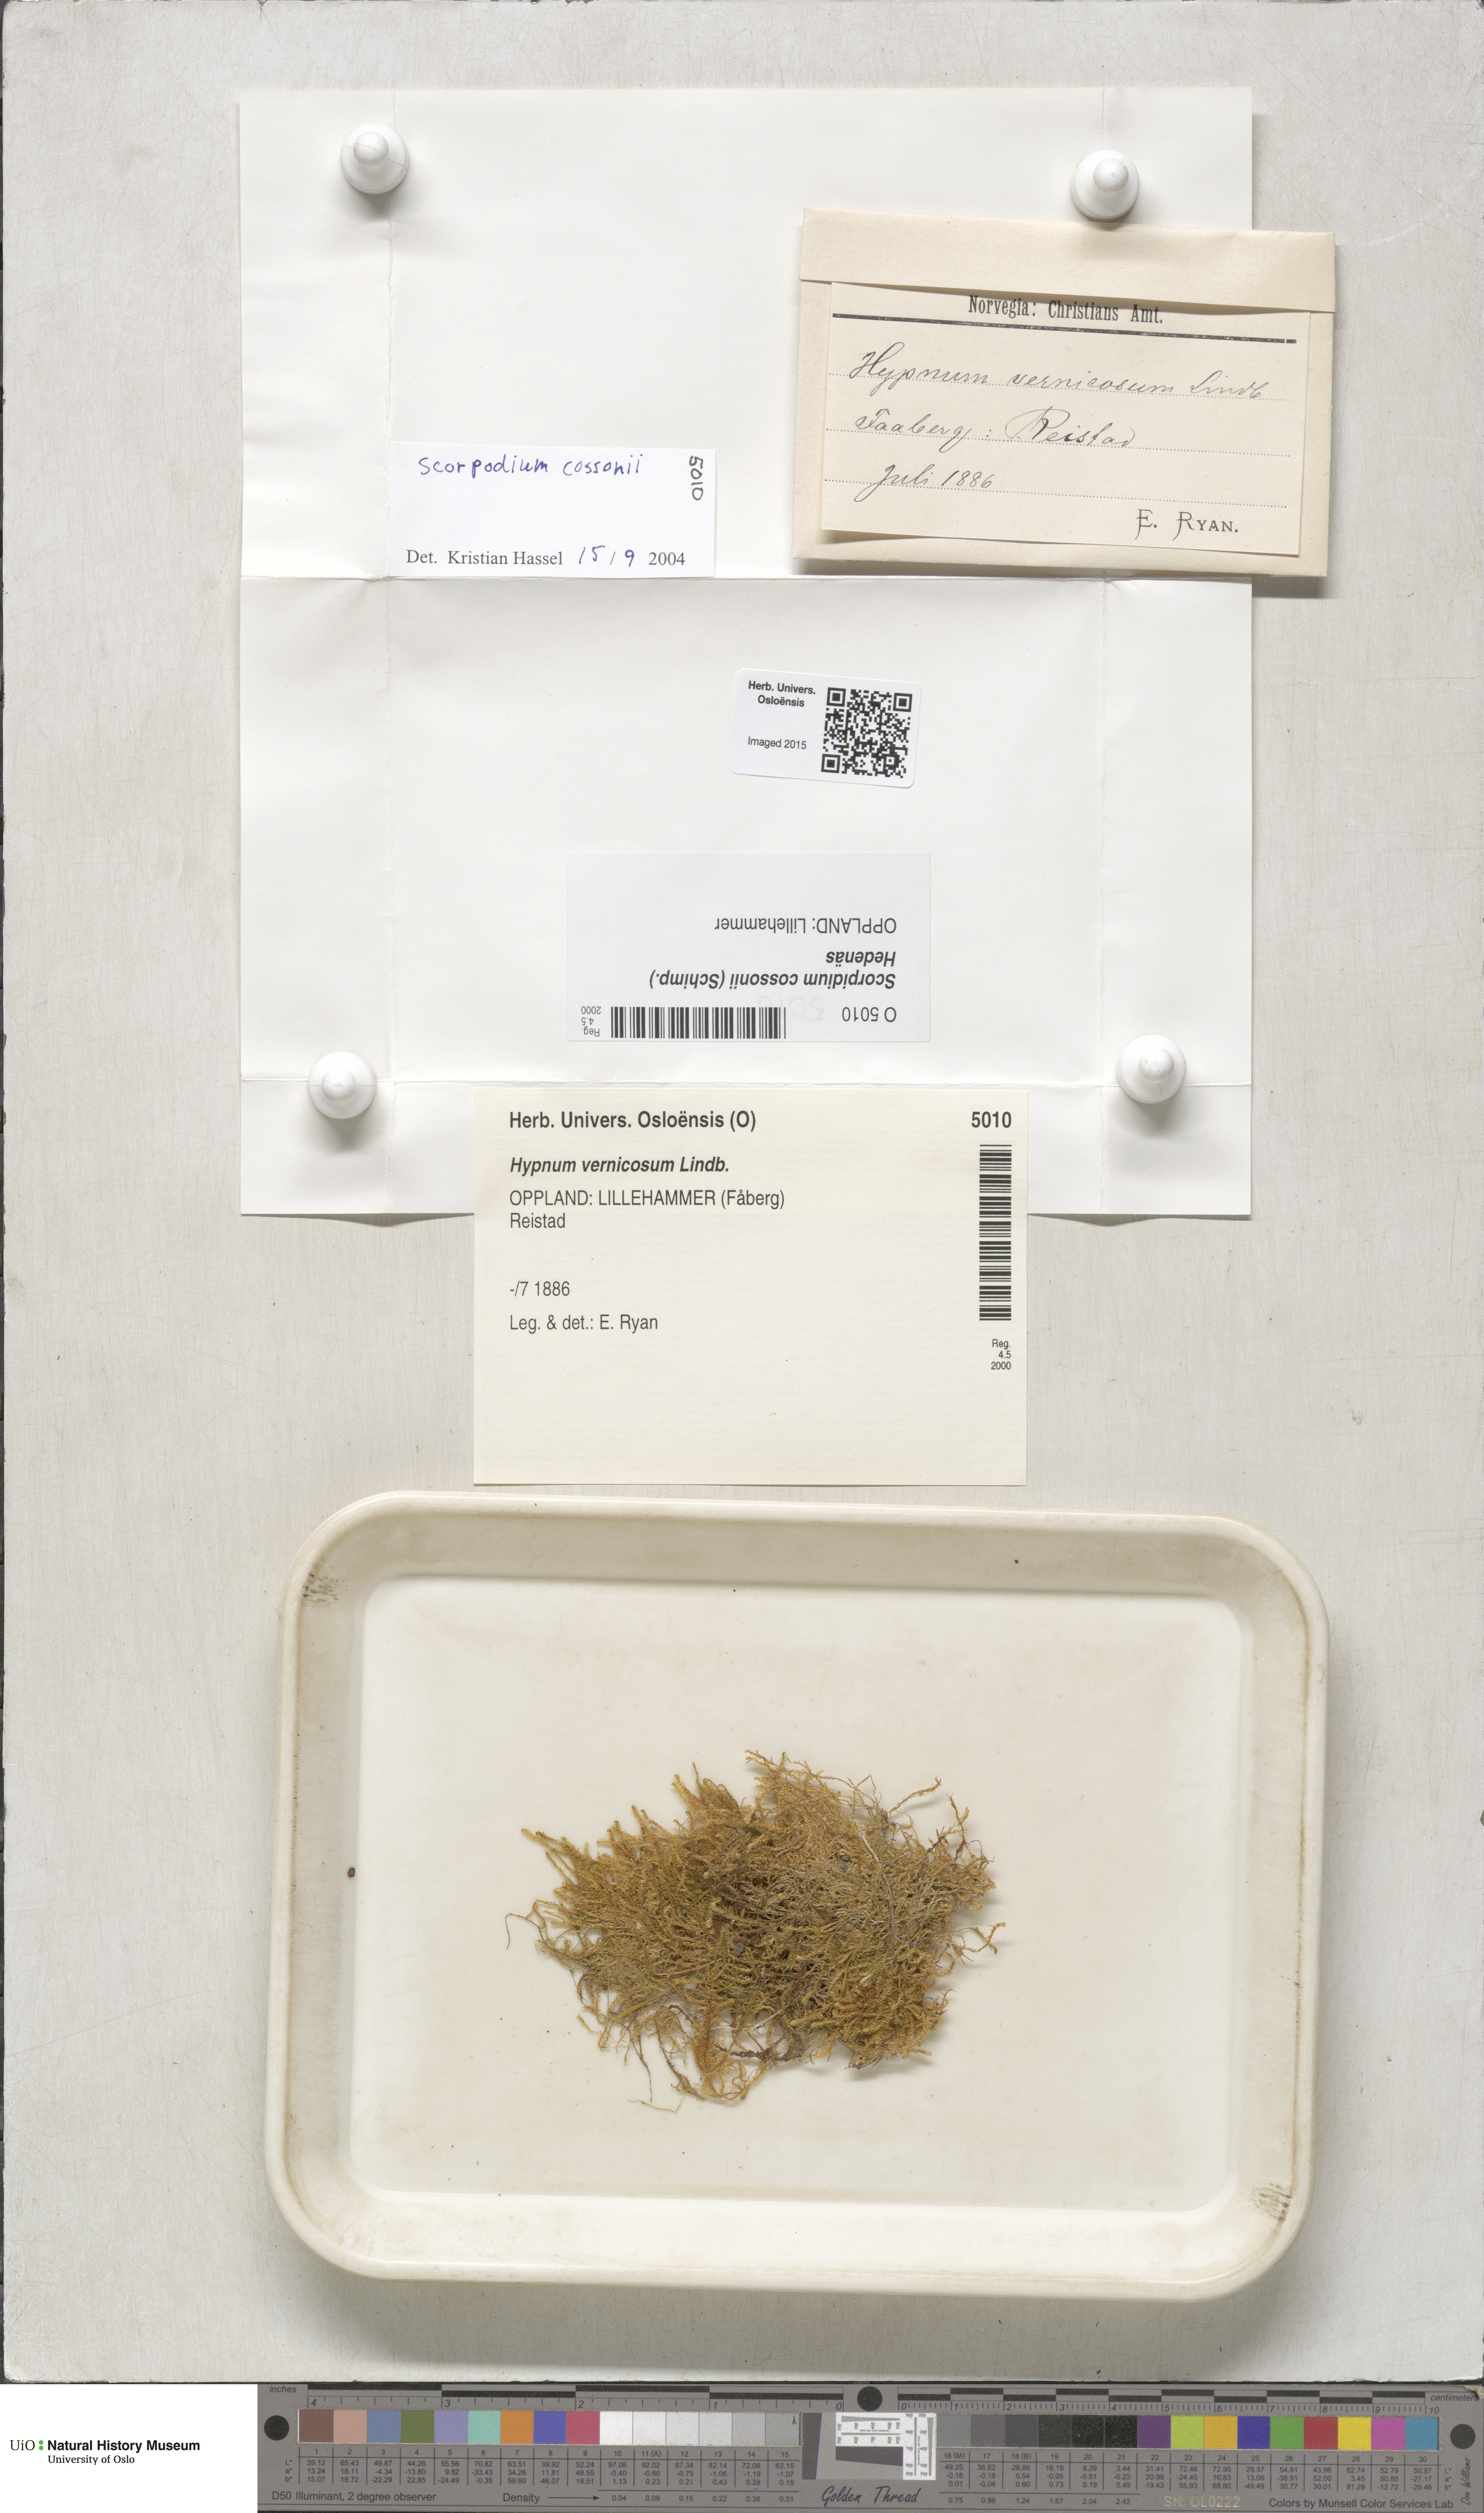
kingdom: Plantae
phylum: Bryophyta
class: Bryopsida
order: Hypnales
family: Scorpidiaceae
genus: Scorpidium
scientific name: Scorpidium cossonii
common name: Cosson's hook moss
